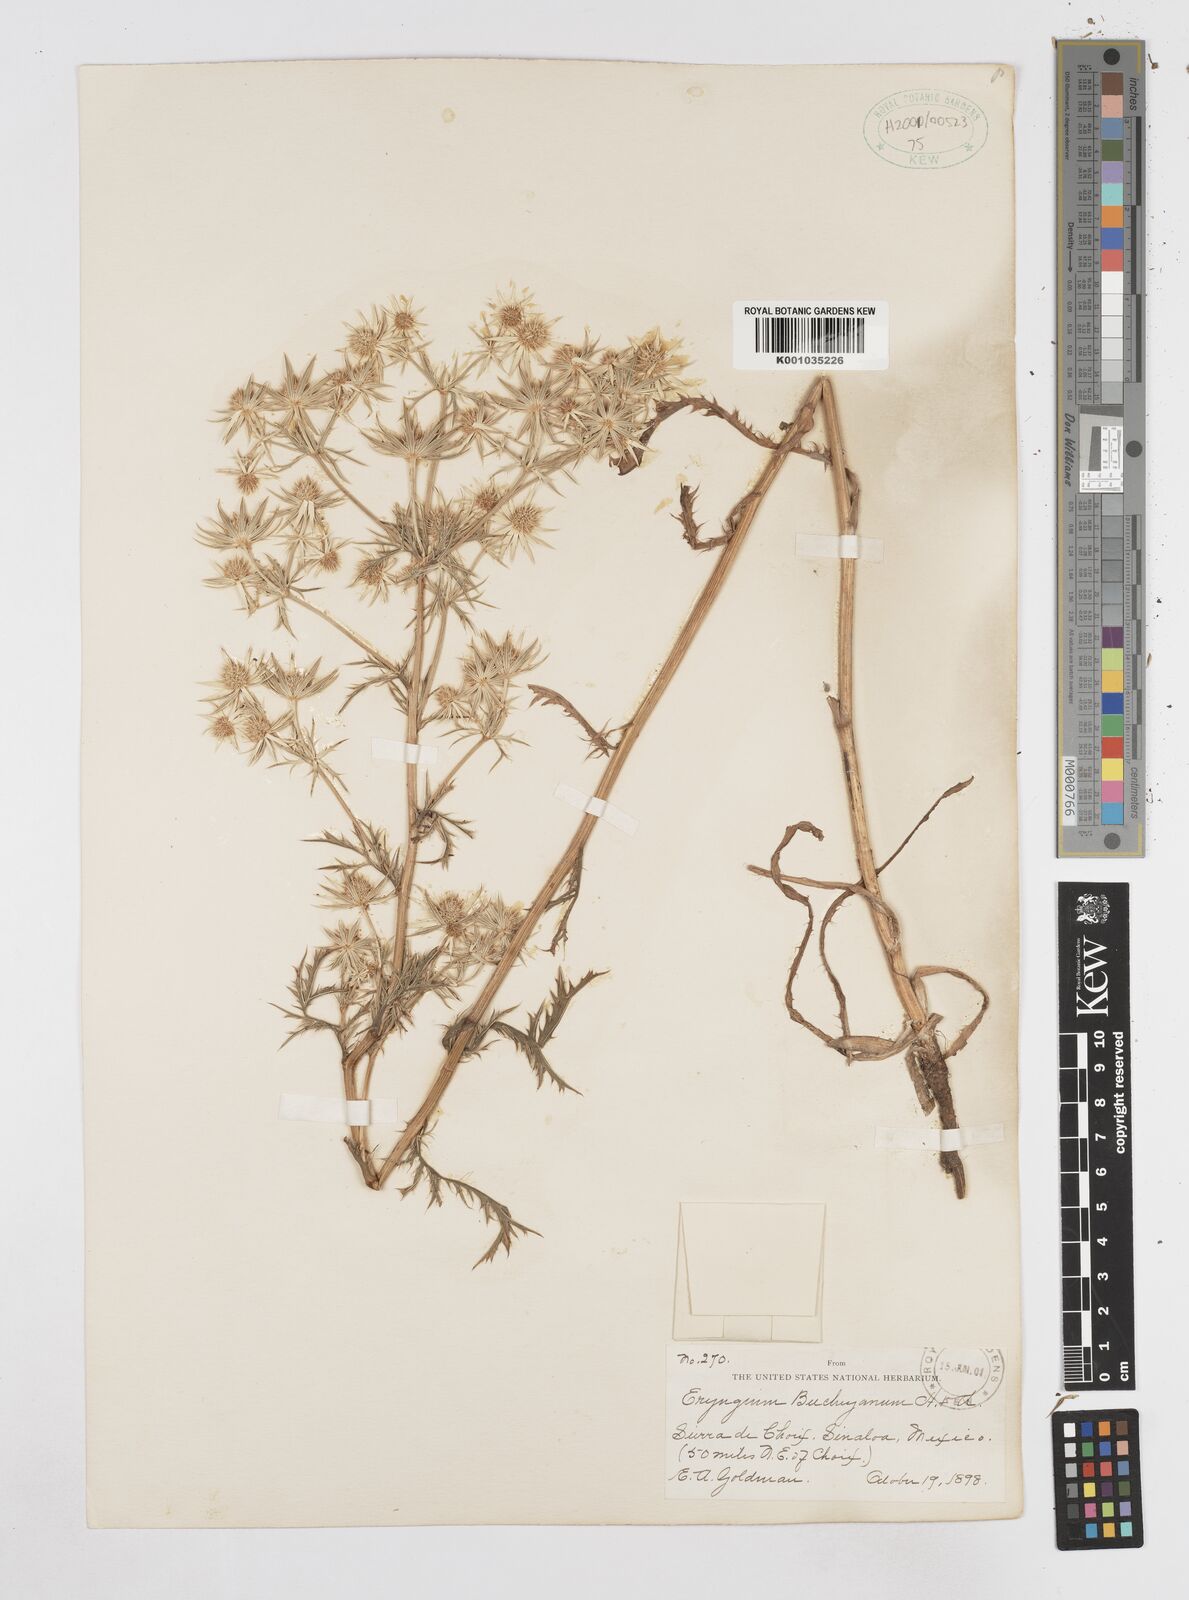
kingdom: Plantae
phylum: Tracheophyta
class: Magnoliopsida
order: Apiales
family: Apiaceae
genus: Eryngium
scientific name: Eryngium heterophyllum
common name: Mexican thistle
